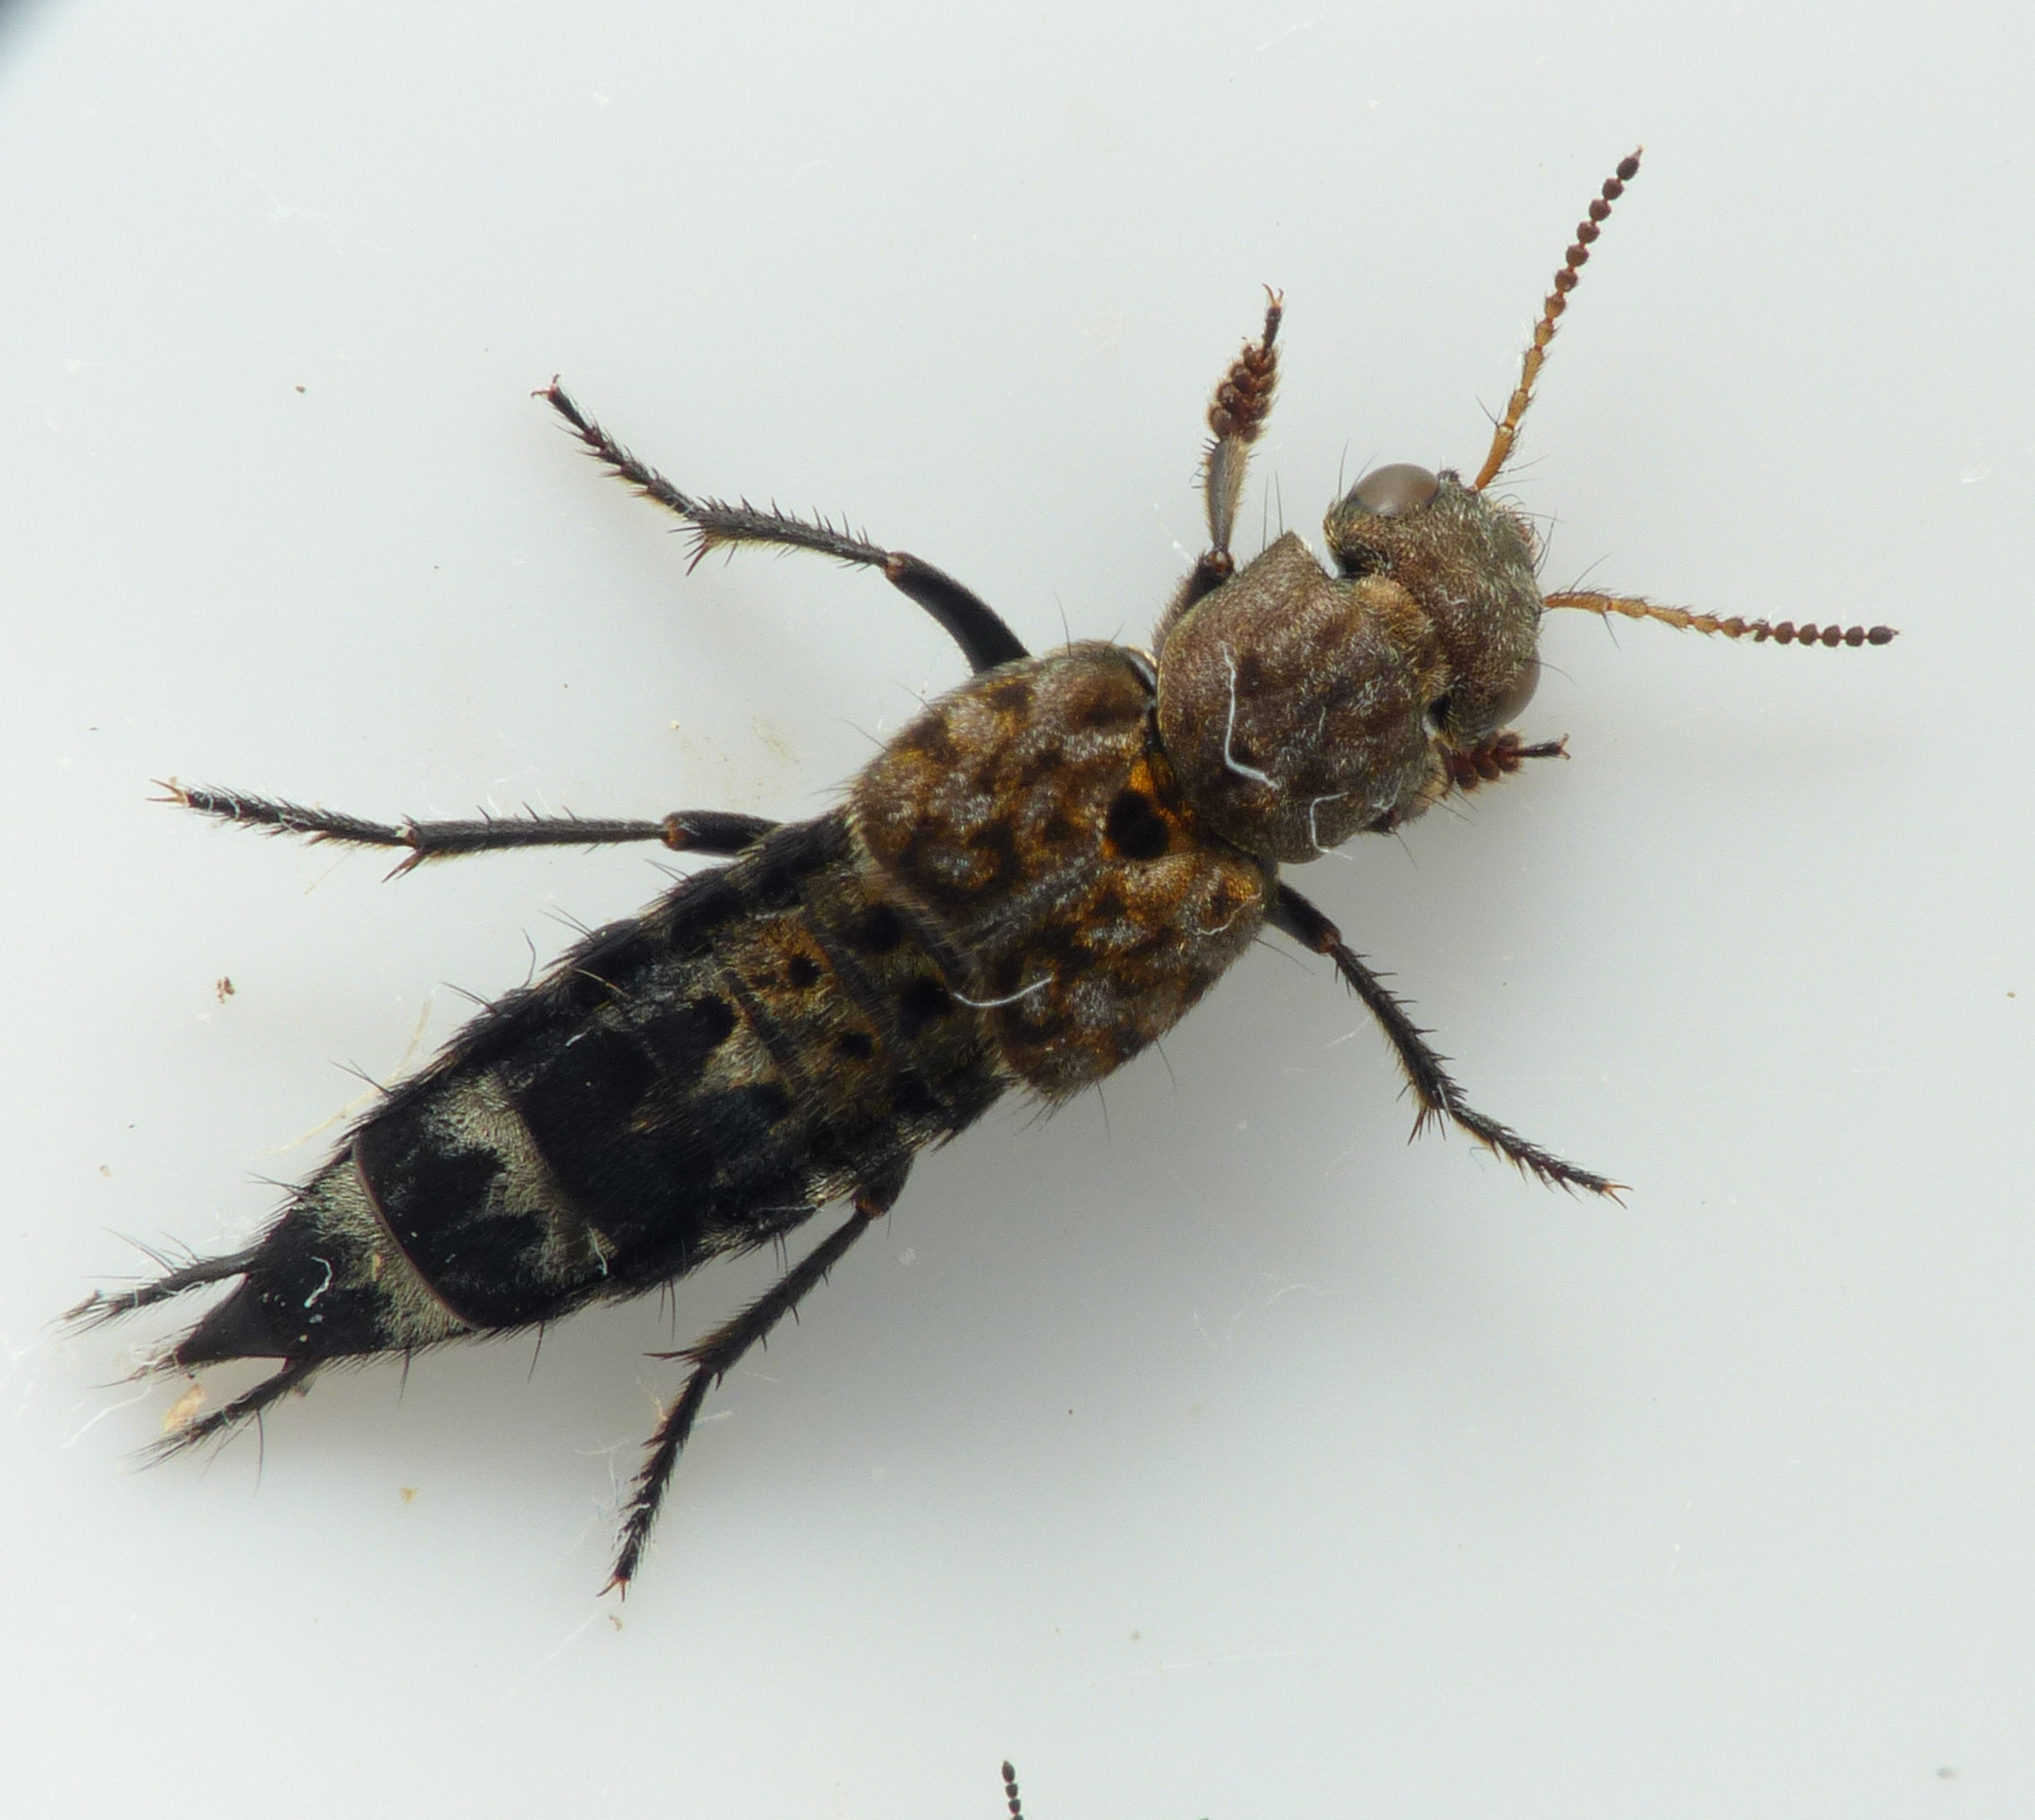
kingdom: Animalia
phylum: Arthropoda
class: Insecta
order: Coleoptera
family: Staphylinidae
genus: Ontholestes
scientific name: Ontholestes murinus
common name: Lille jagtrovbille
